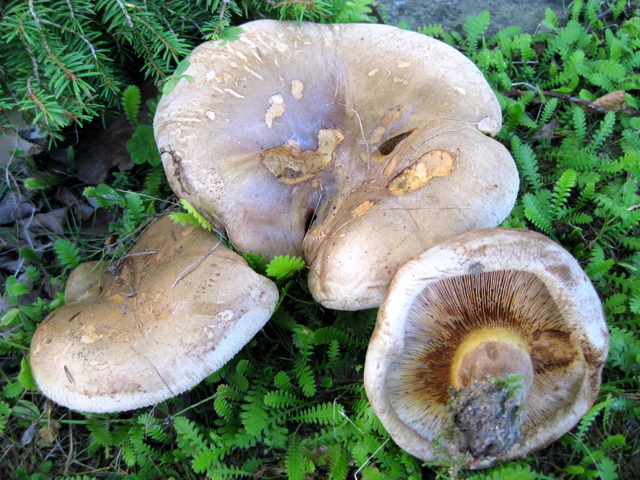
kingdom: Fungi
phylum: Basidiomycota
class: Agaricomycetes
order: Boletales
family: Paxillaceae
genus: Paxillus
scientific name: Paxillus ammoniavirescens
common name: olivensporet netbladhat
